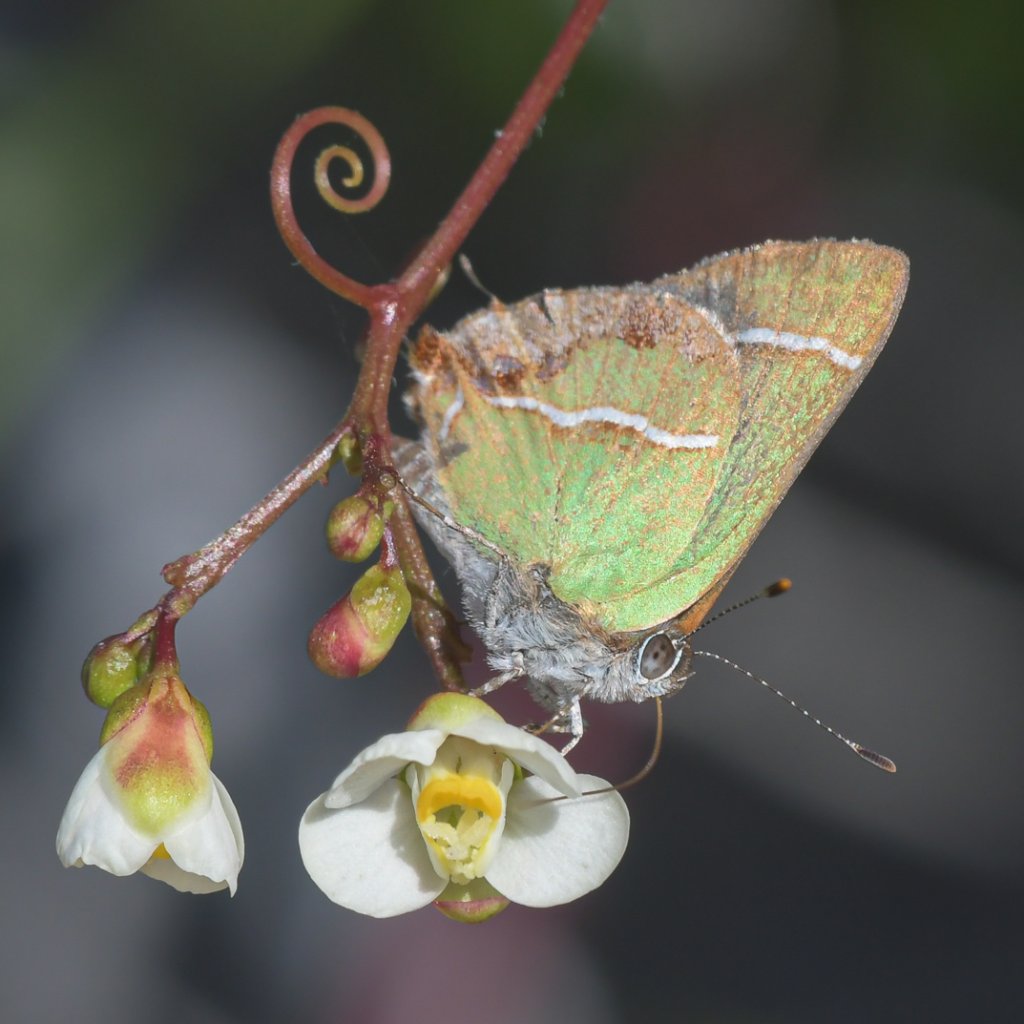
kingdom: Animalia
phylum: Arthropoda
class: Insecta
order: Lepidoptera
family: Lycaenidae
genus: Chlorostrymon
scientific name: Chlorostrymon simaethis
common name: Silver-banded Hairstreak
